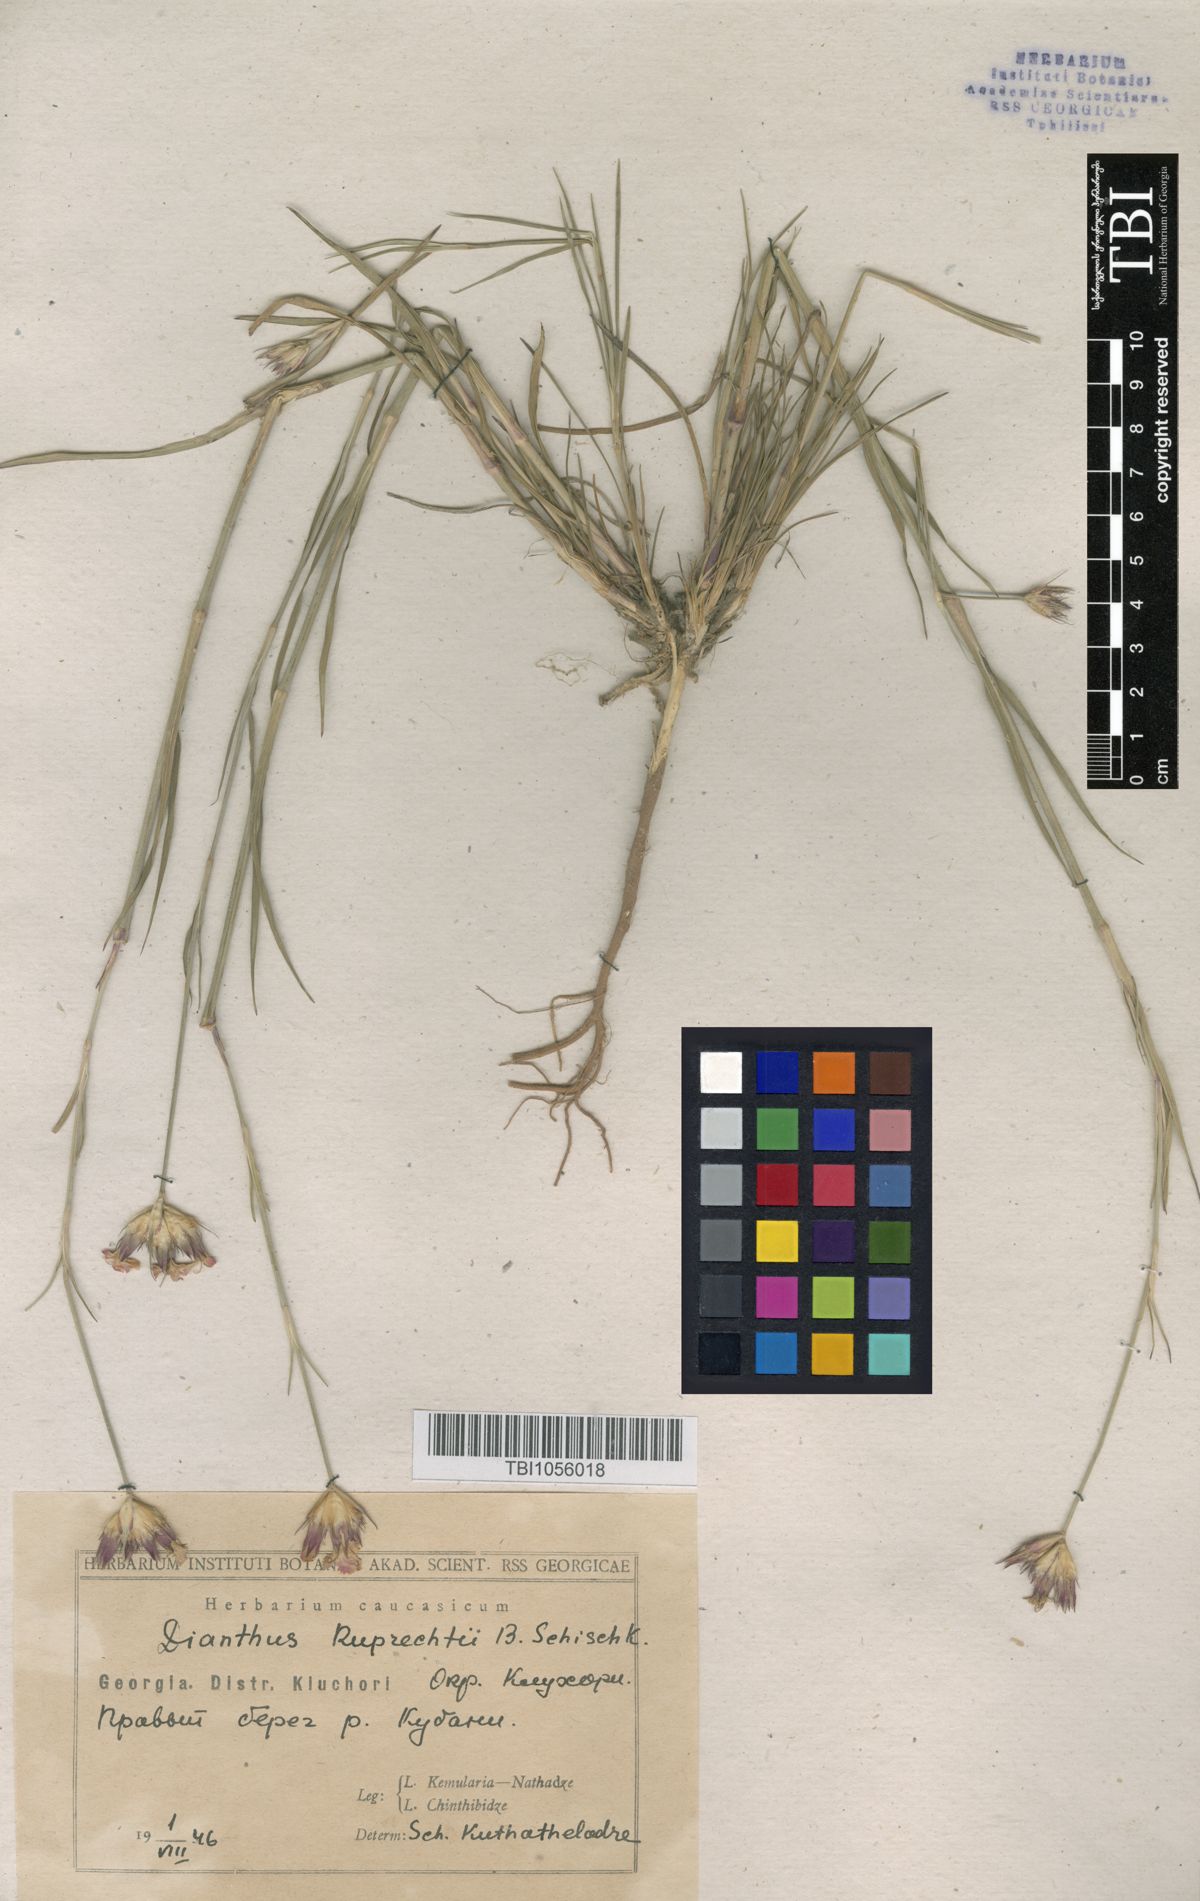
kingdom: Plantae
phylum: Tracheophyta
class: Magnoliopsida
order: Caryophyllales
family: Caryophyllaceae
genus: Dianthus
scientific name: Dianthus ruprechtii
